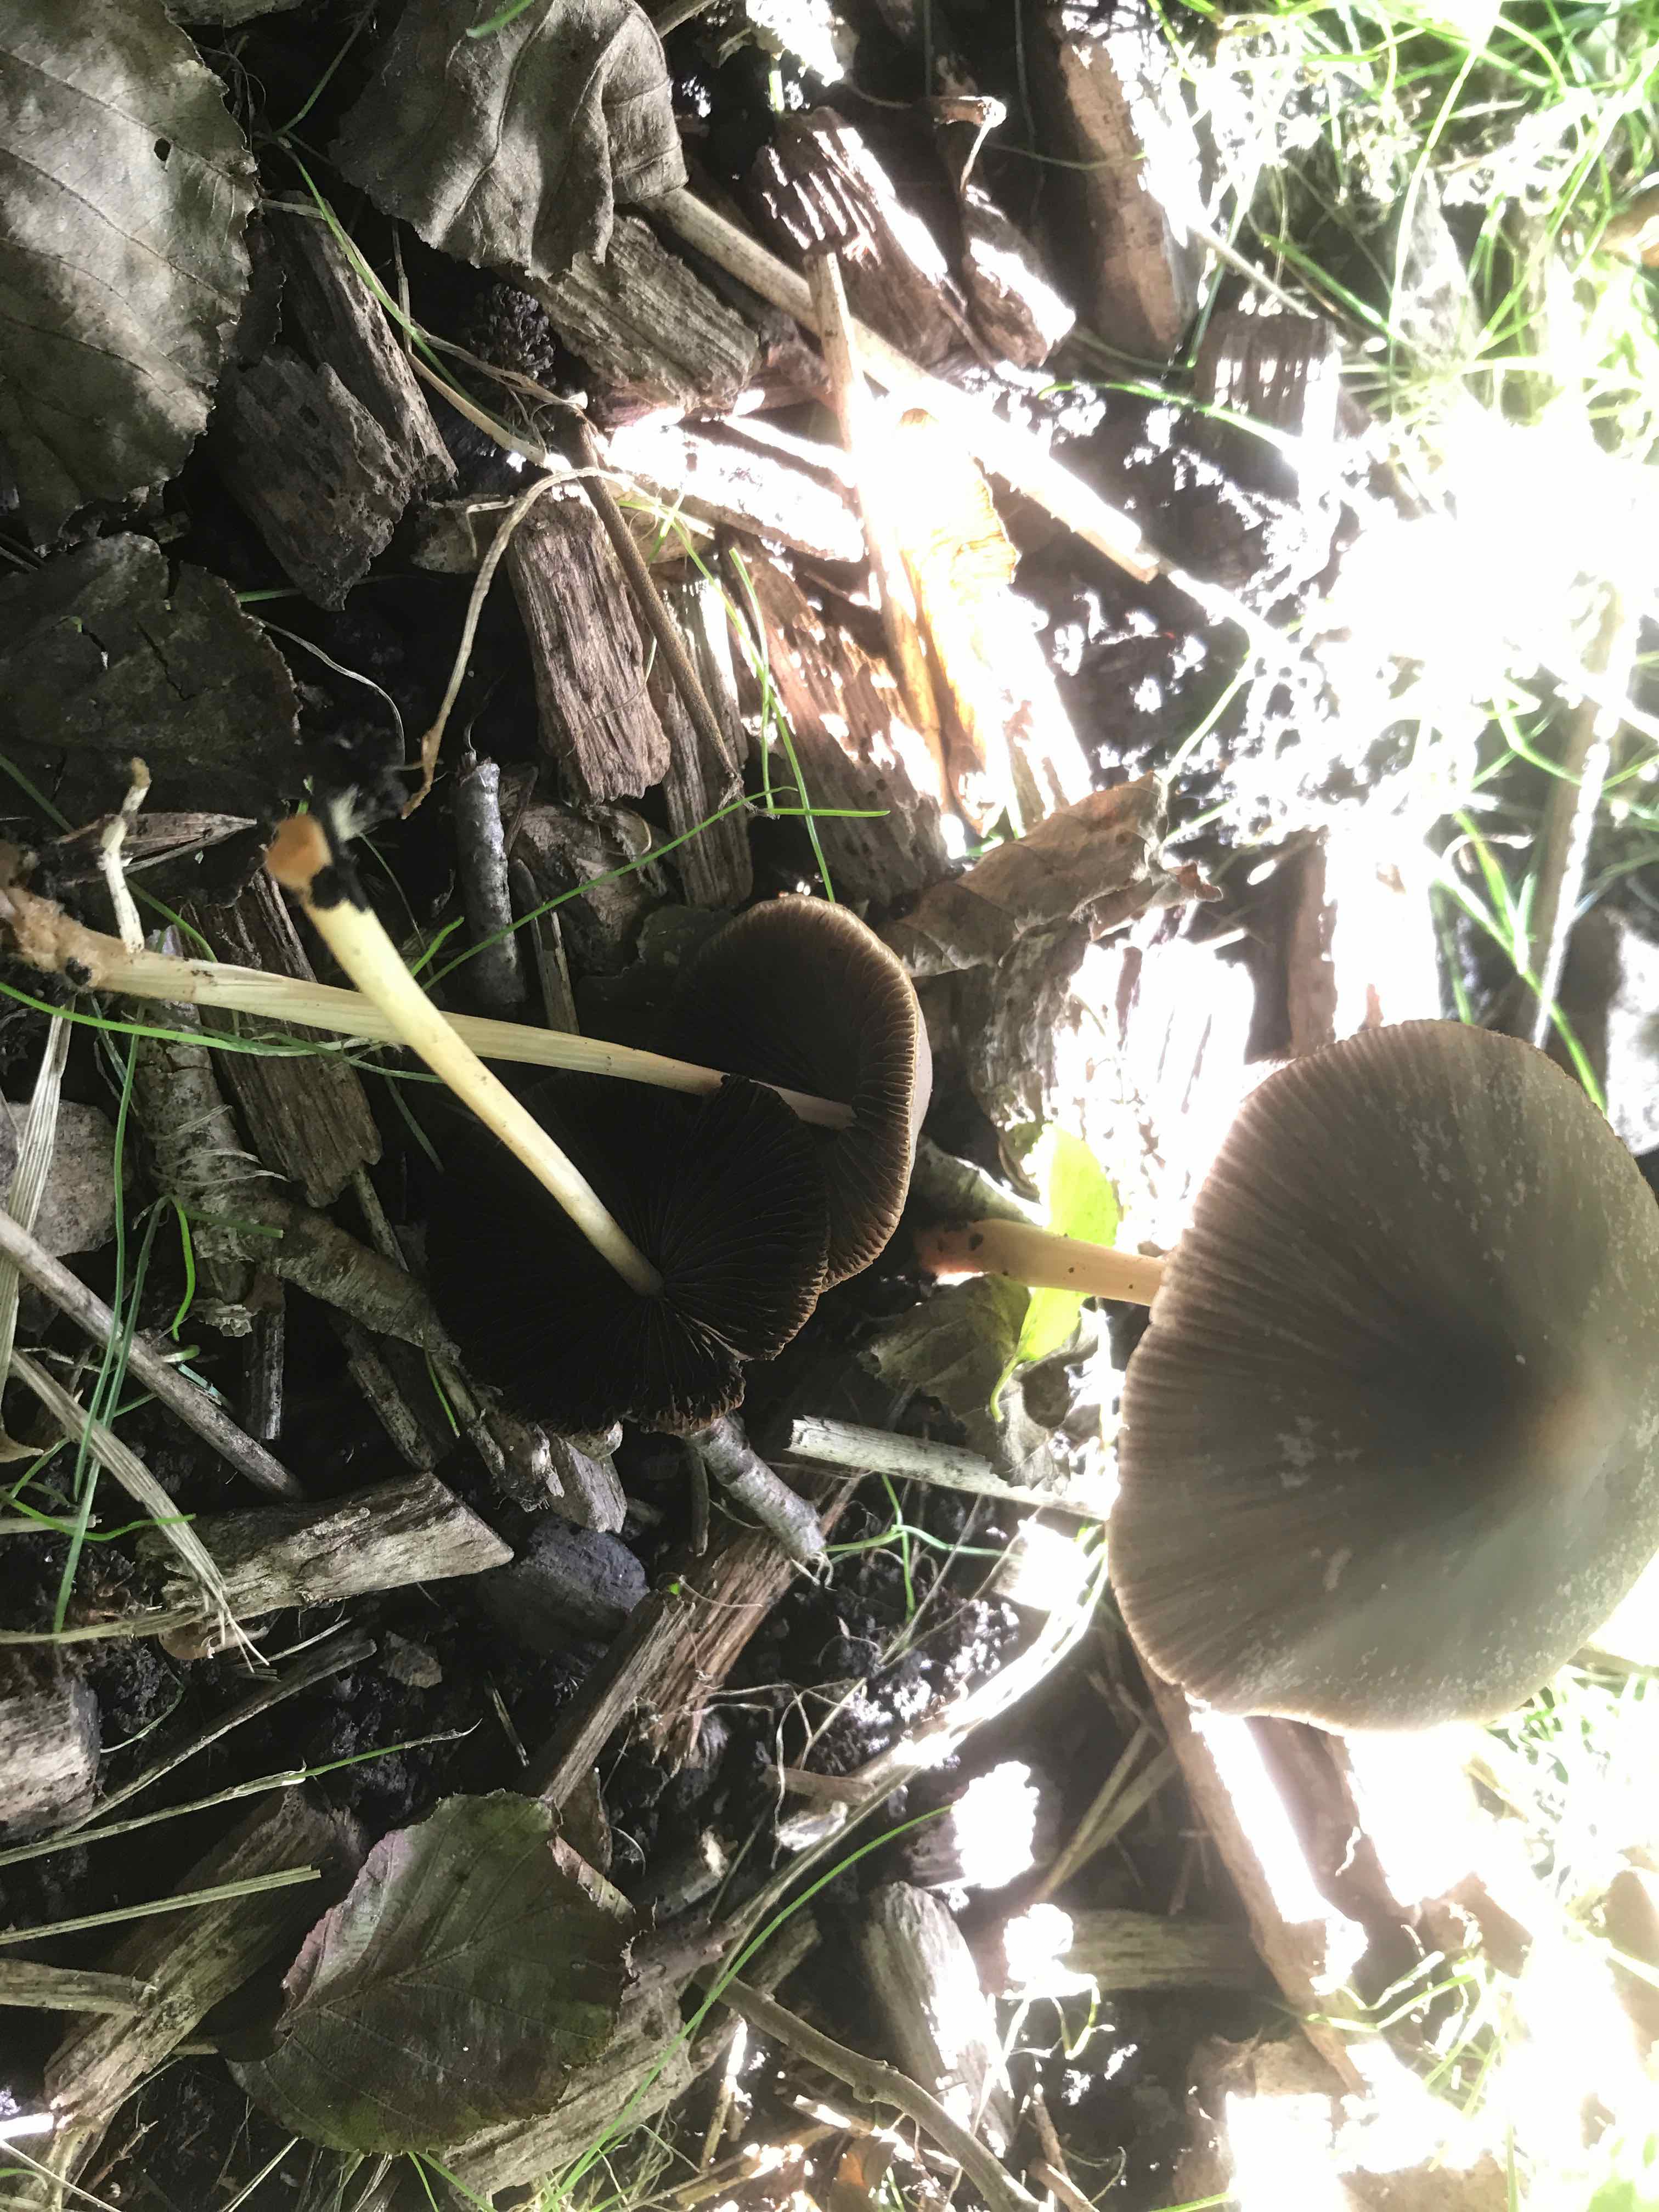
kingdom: Fungi
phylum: Basidiomycota
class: Agaricomycetes
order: Agaricales
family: Psathyrellaceae
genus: Parasola
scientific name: Parasola conopilea
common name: kegle-hjulhat
